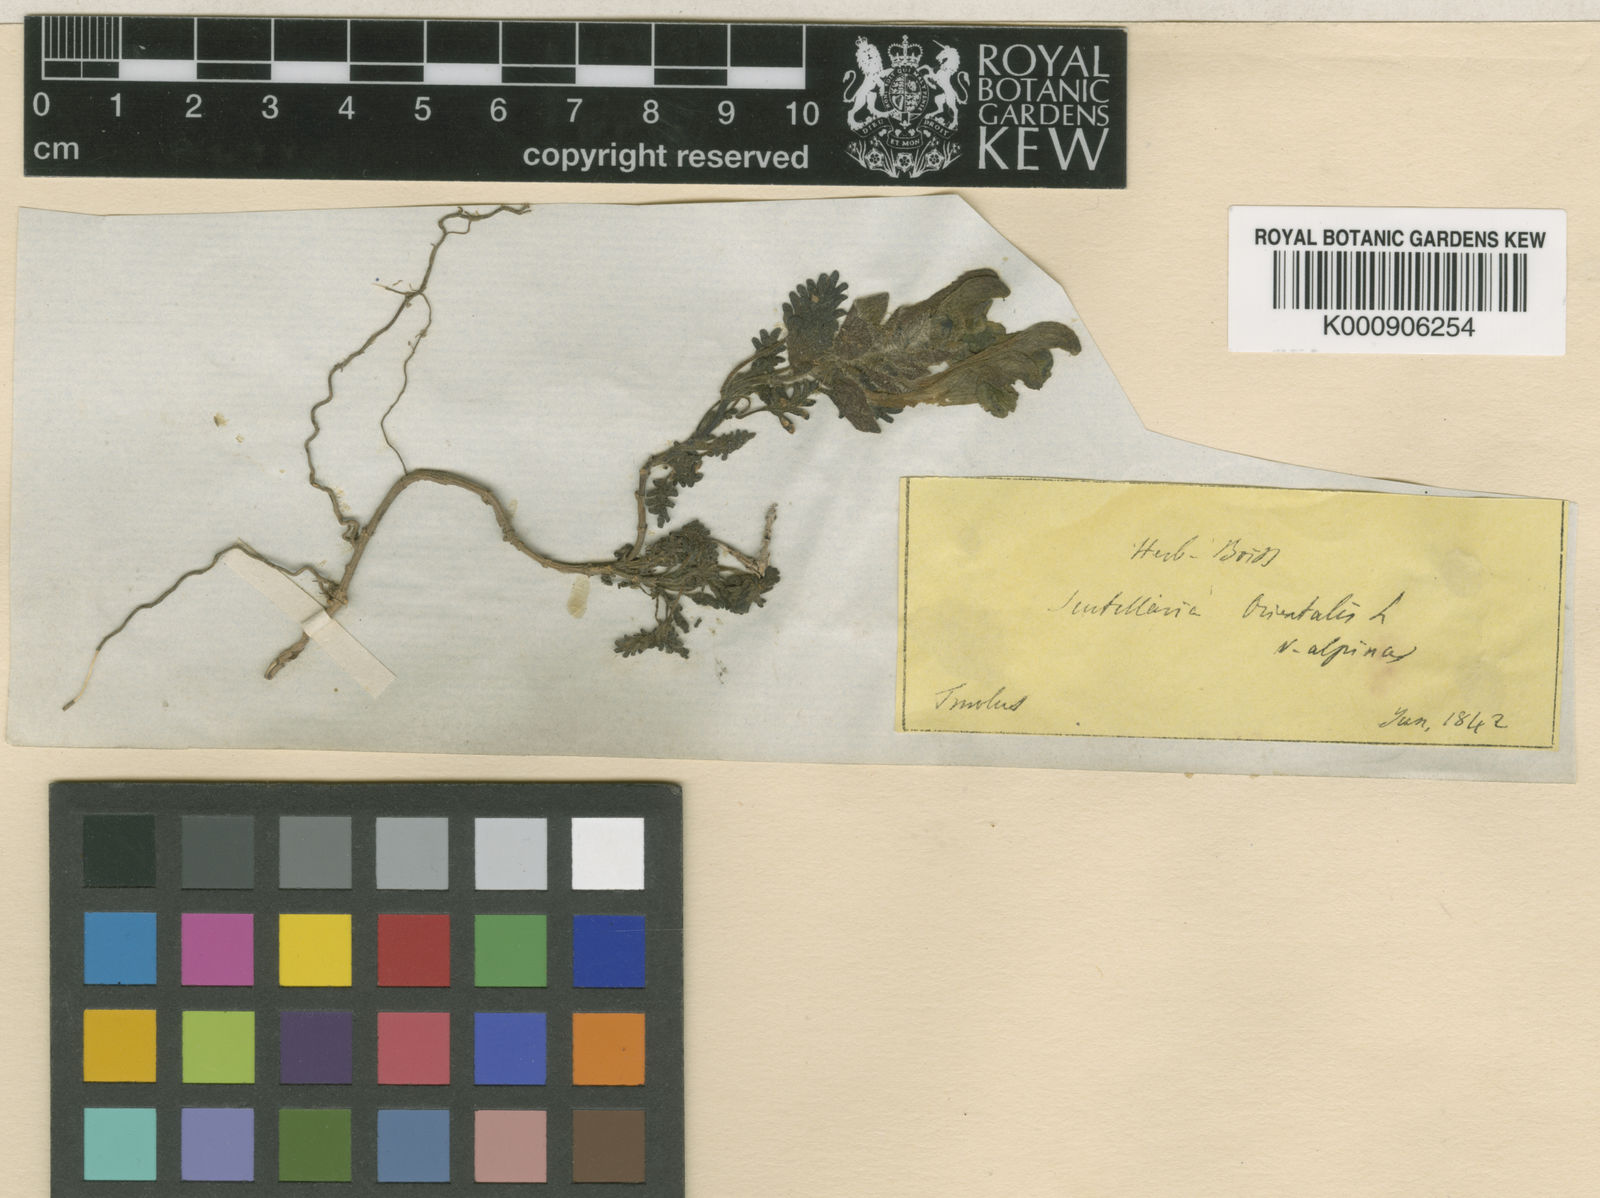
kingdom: Plantae
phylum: Tracheophyta
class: Magnoliopsida
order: Lamiales
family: Lamiaceae
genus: Scutellaria
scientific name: Scutellaria orientalis
